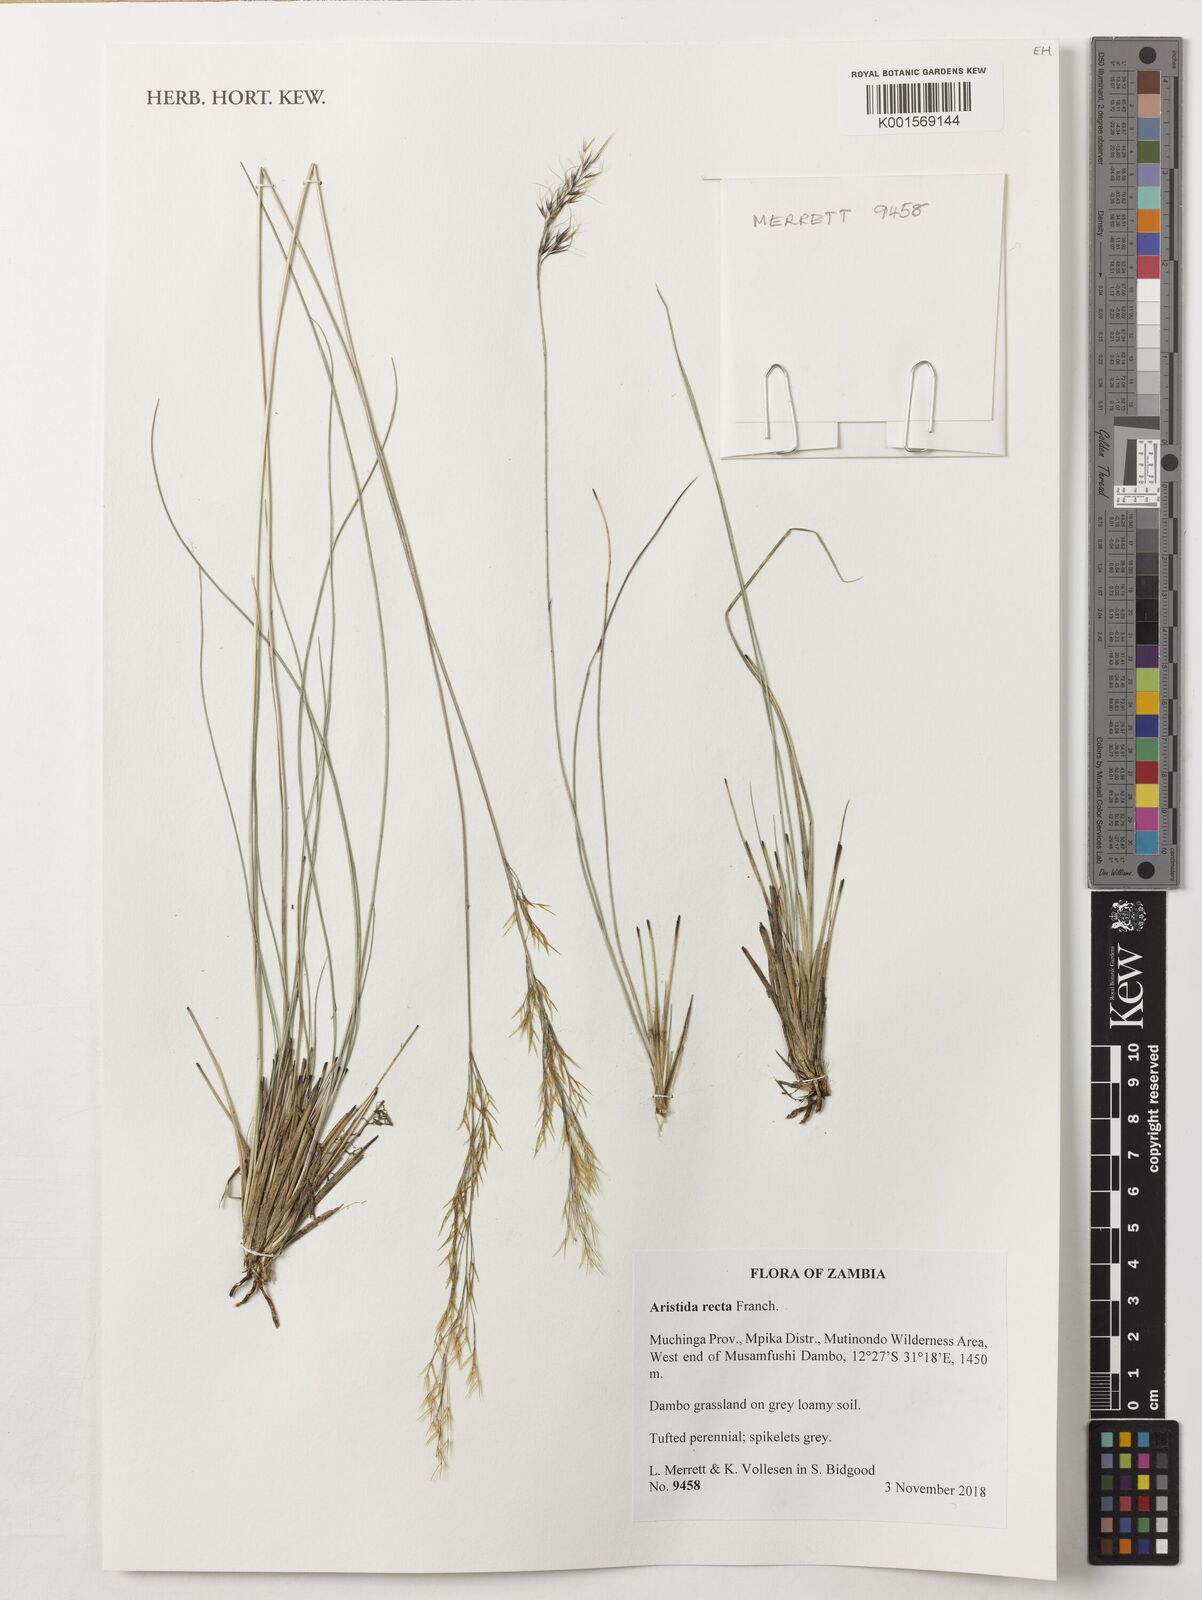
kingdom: Plantae
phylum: Tracheophyta
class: Liliopsida
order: Poales
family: Poaceae
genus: Aristida
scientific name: Aristida recta
